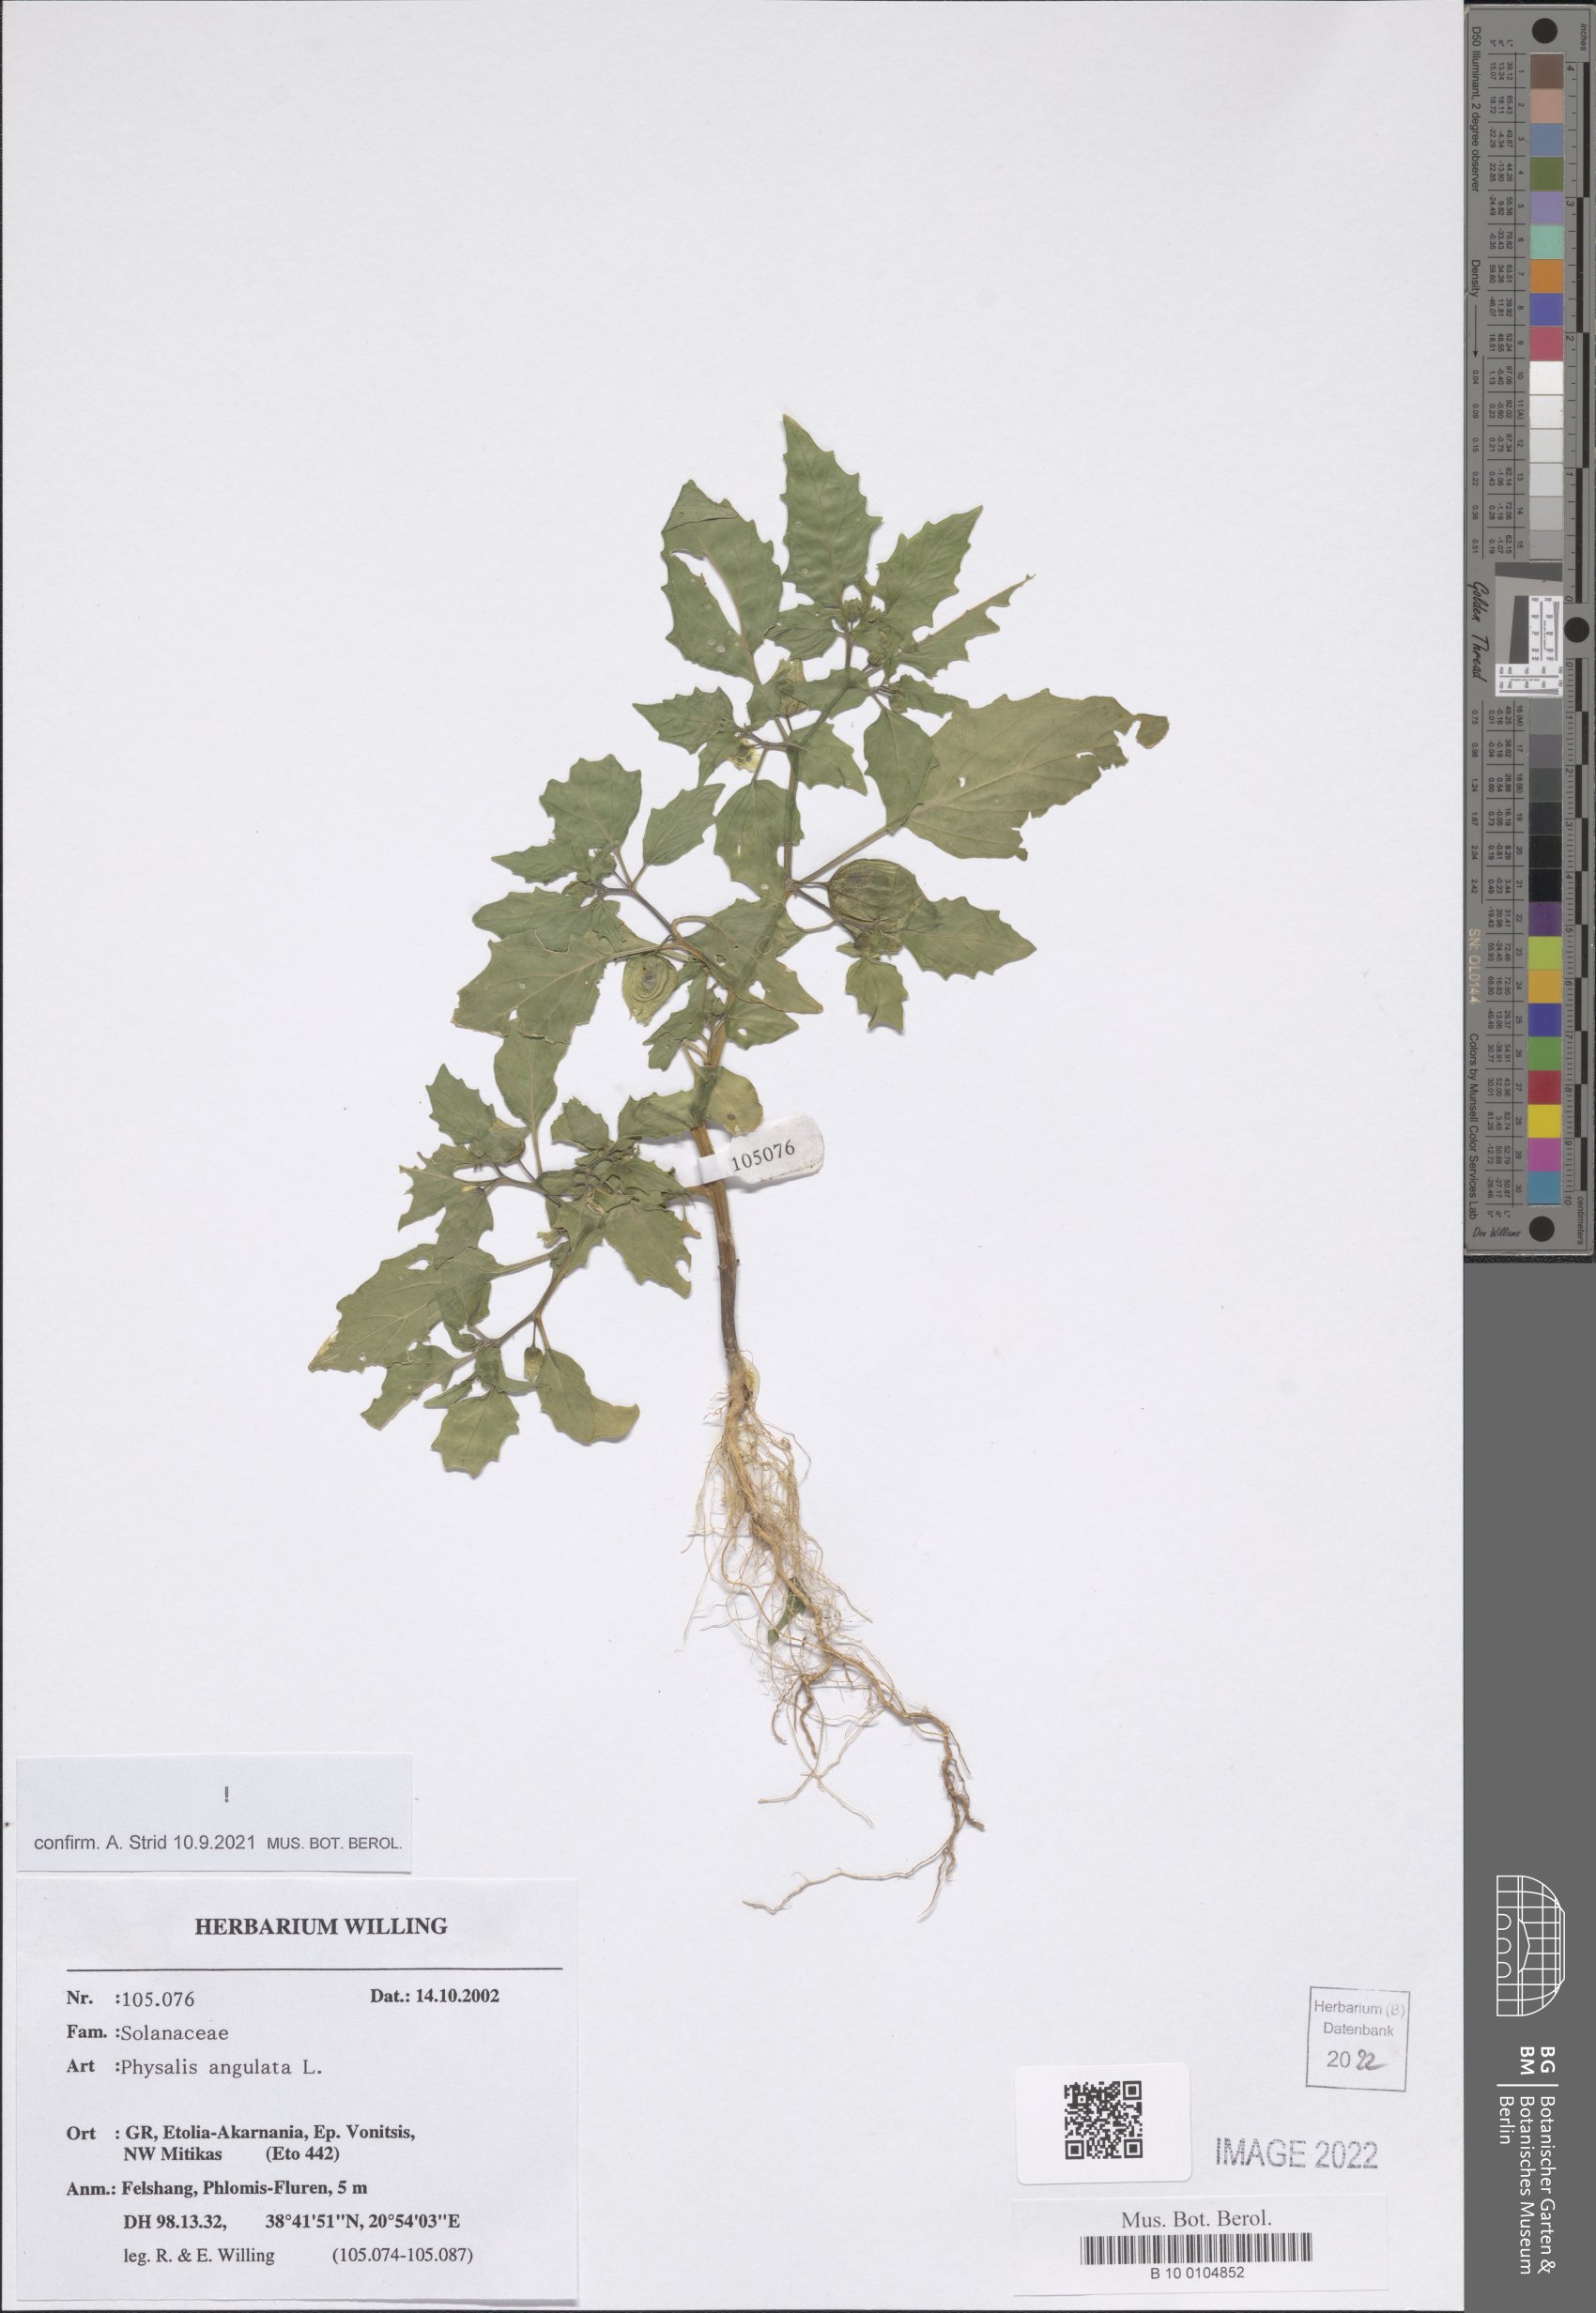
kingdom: Plantae
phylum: Tracheophyta
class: Magnoliopsida
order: Solanales
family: Solanaceae
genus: Physalis
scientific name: Physalis angulata
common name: Angular winter-cherry
